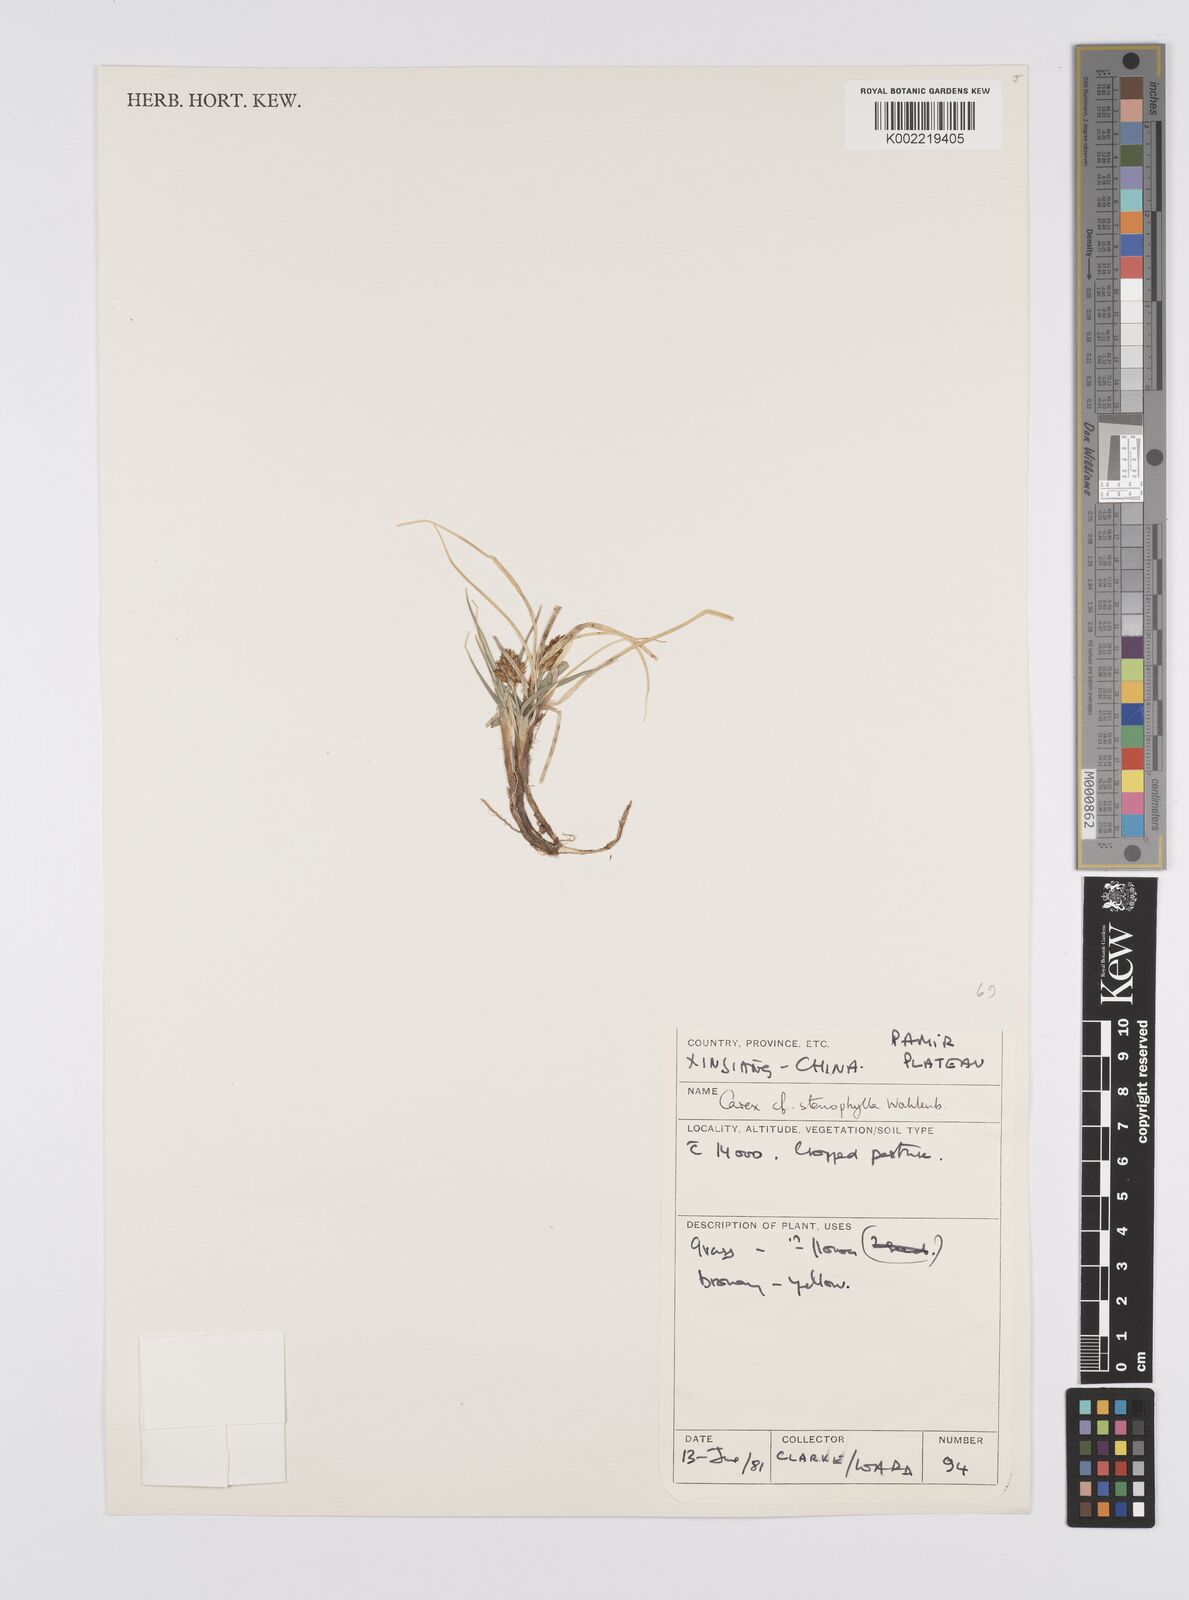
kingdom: Plantae
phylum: Tracheophyta
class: Liliopsida
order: Poales
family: Cyperaceae
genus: Carex
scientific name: Carex stenophylla
